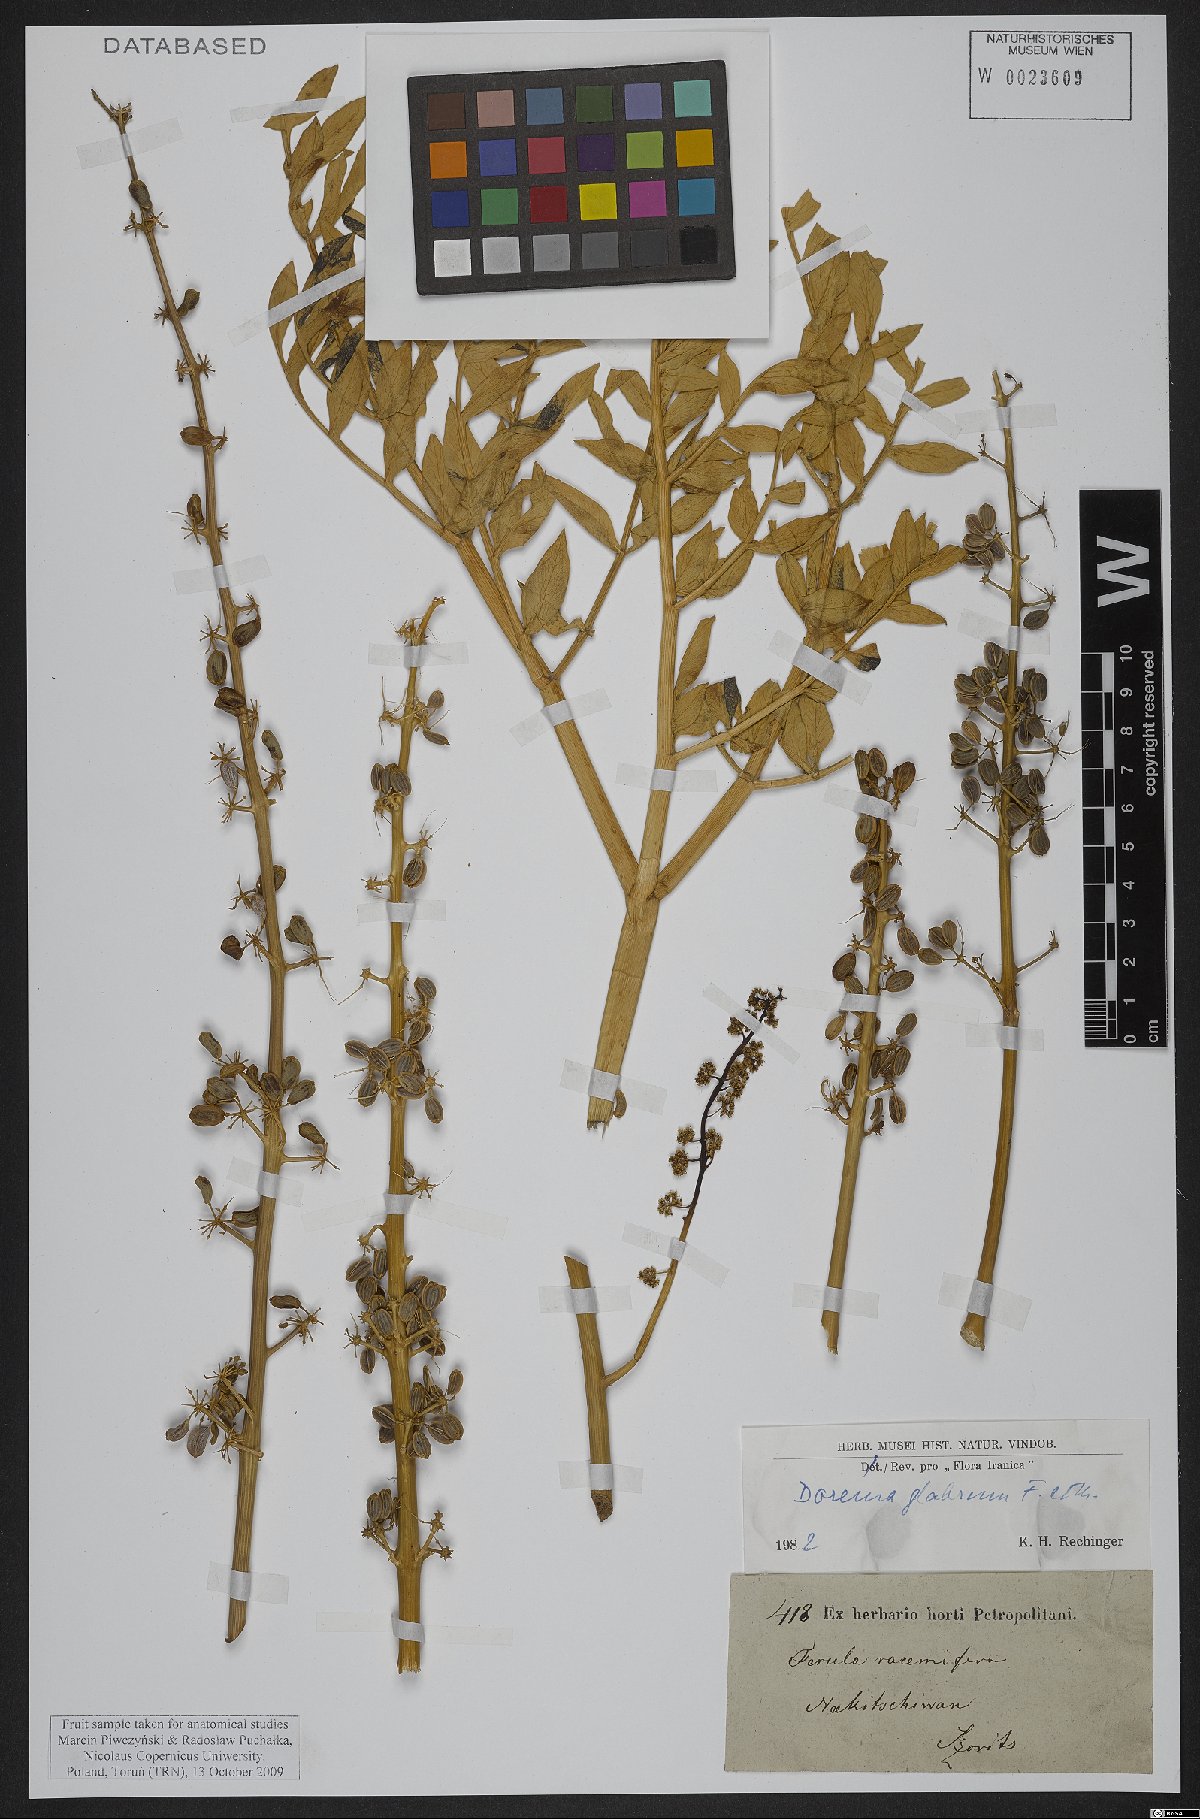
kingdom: Plantae
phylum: Tracheophyta
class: Magnoliopsida
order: Apiales
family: Apiaceae
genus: Ferula
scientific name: Ferula glabrifolia
